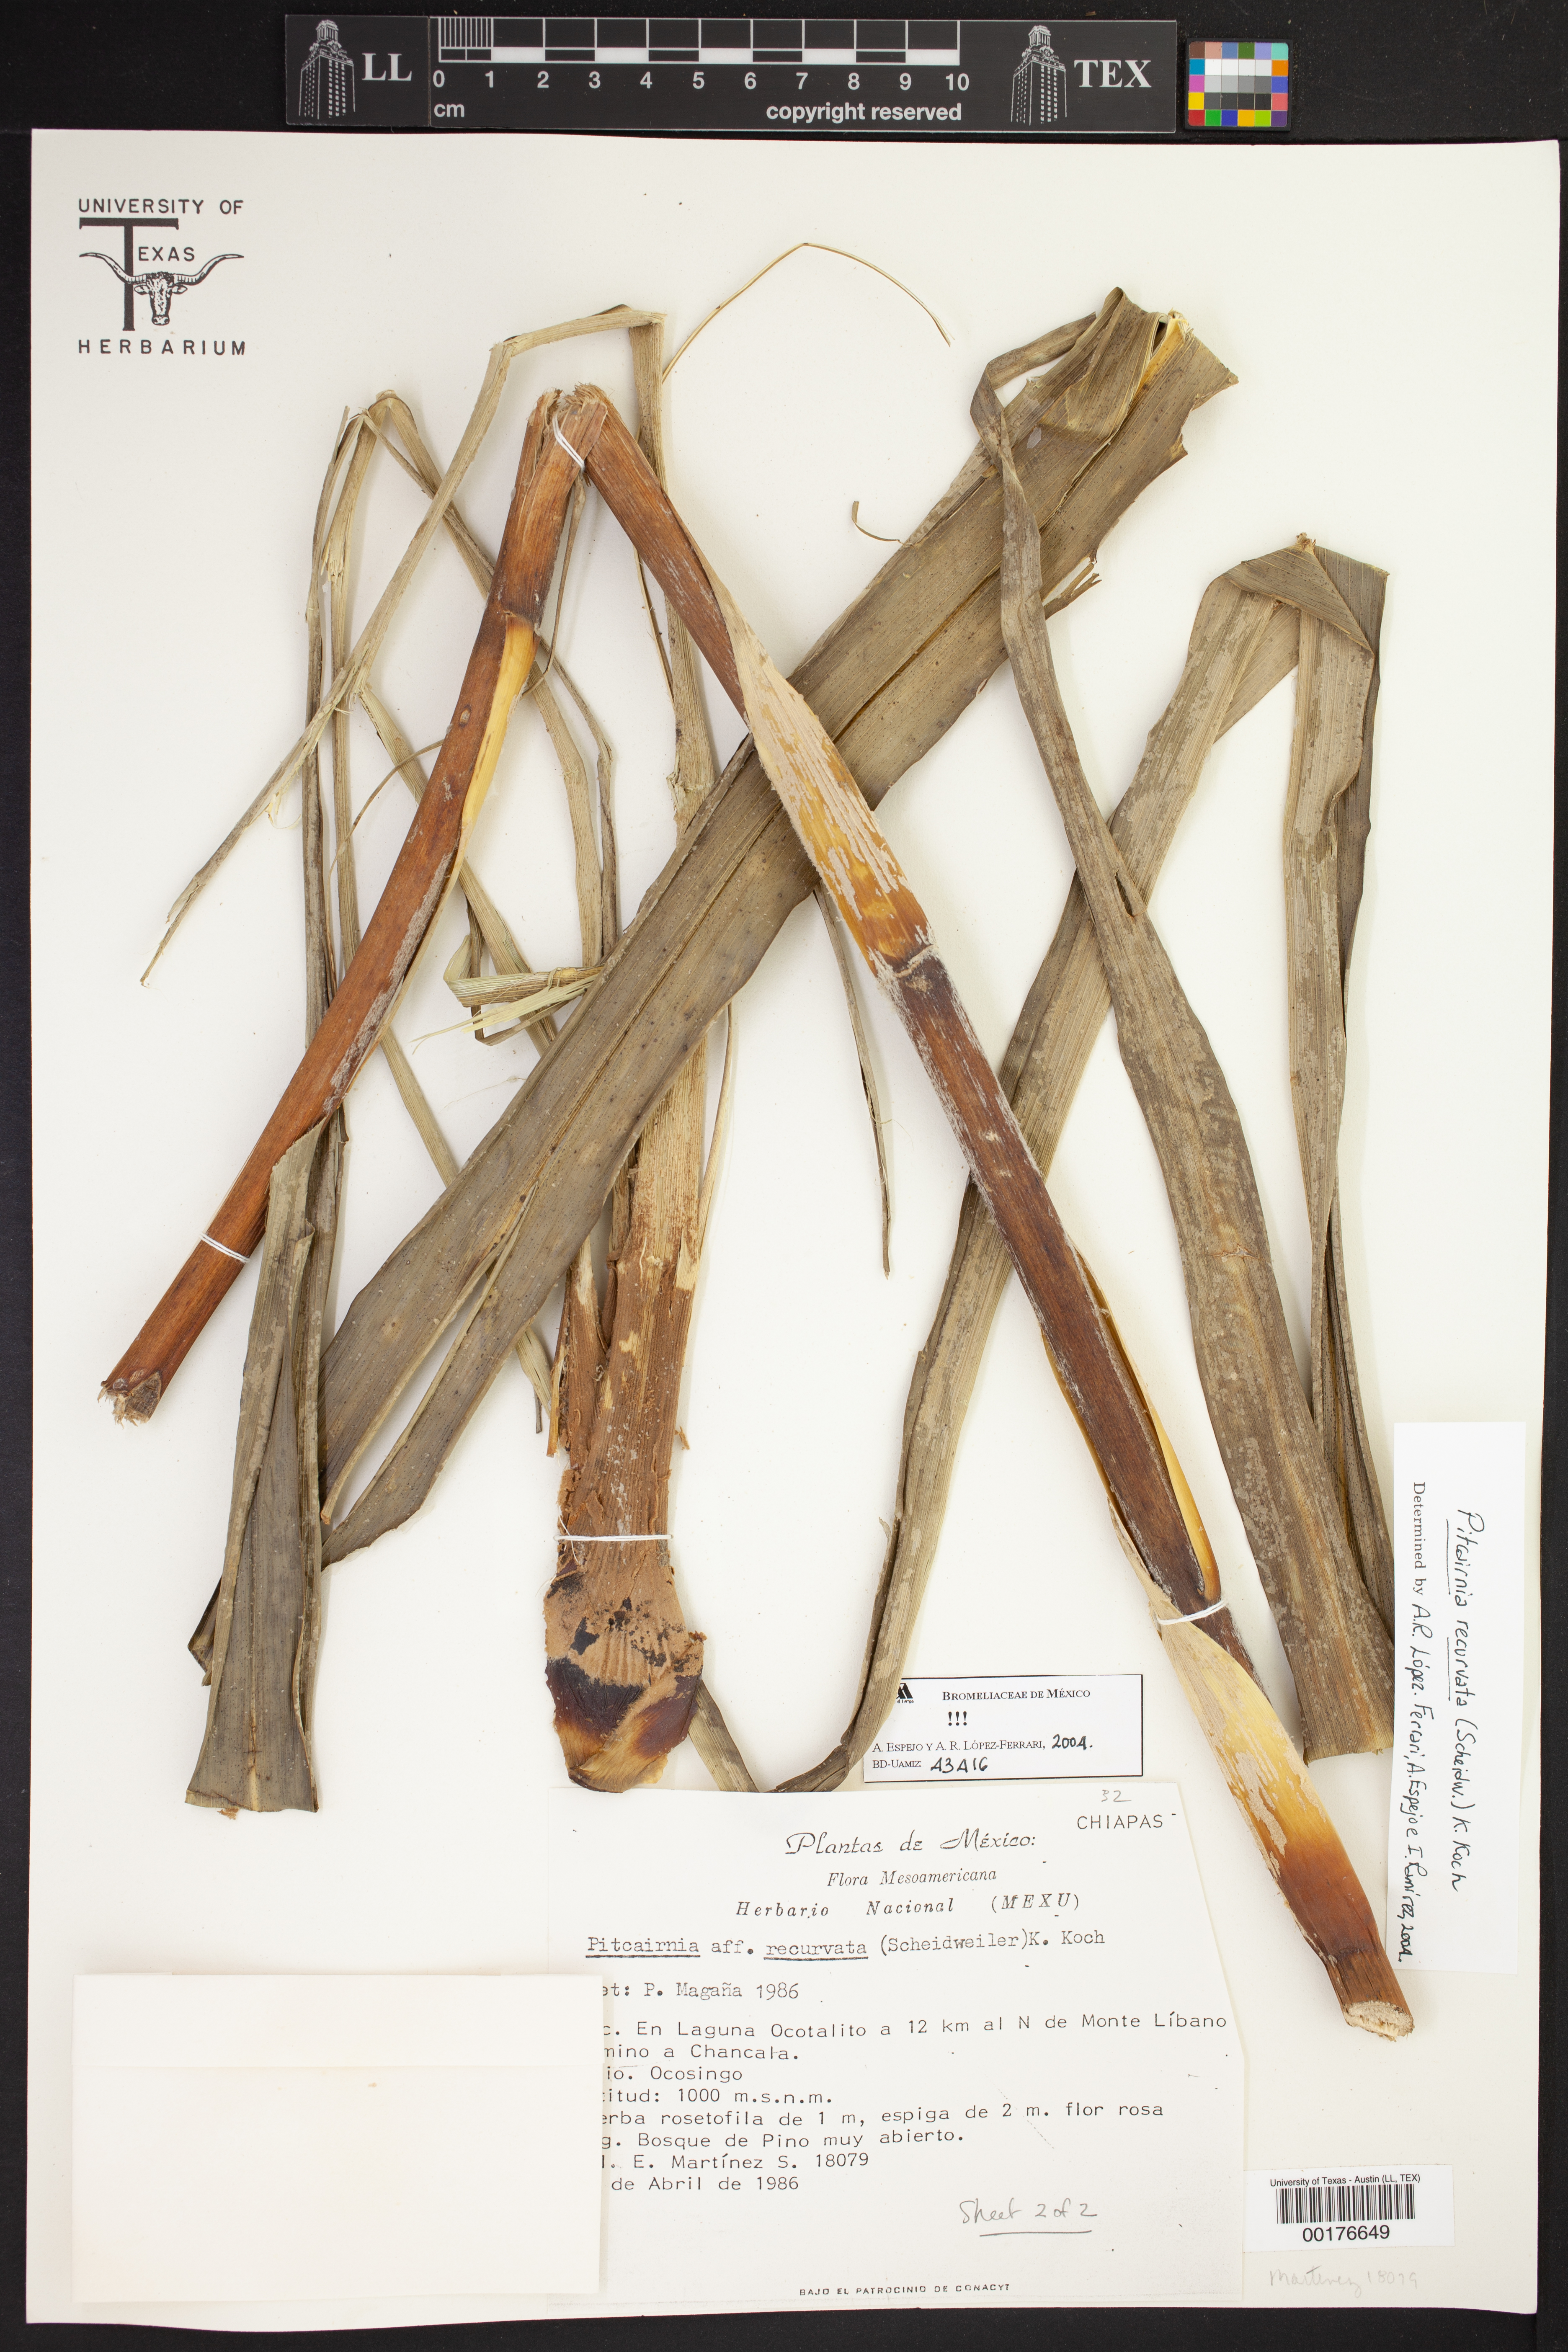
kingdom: Plantae
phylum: Tracheophyta
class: Liliopsida
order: Poales
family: Bromeliaceae
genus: Pitcairnia
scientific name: Pitcairnia recurvata
